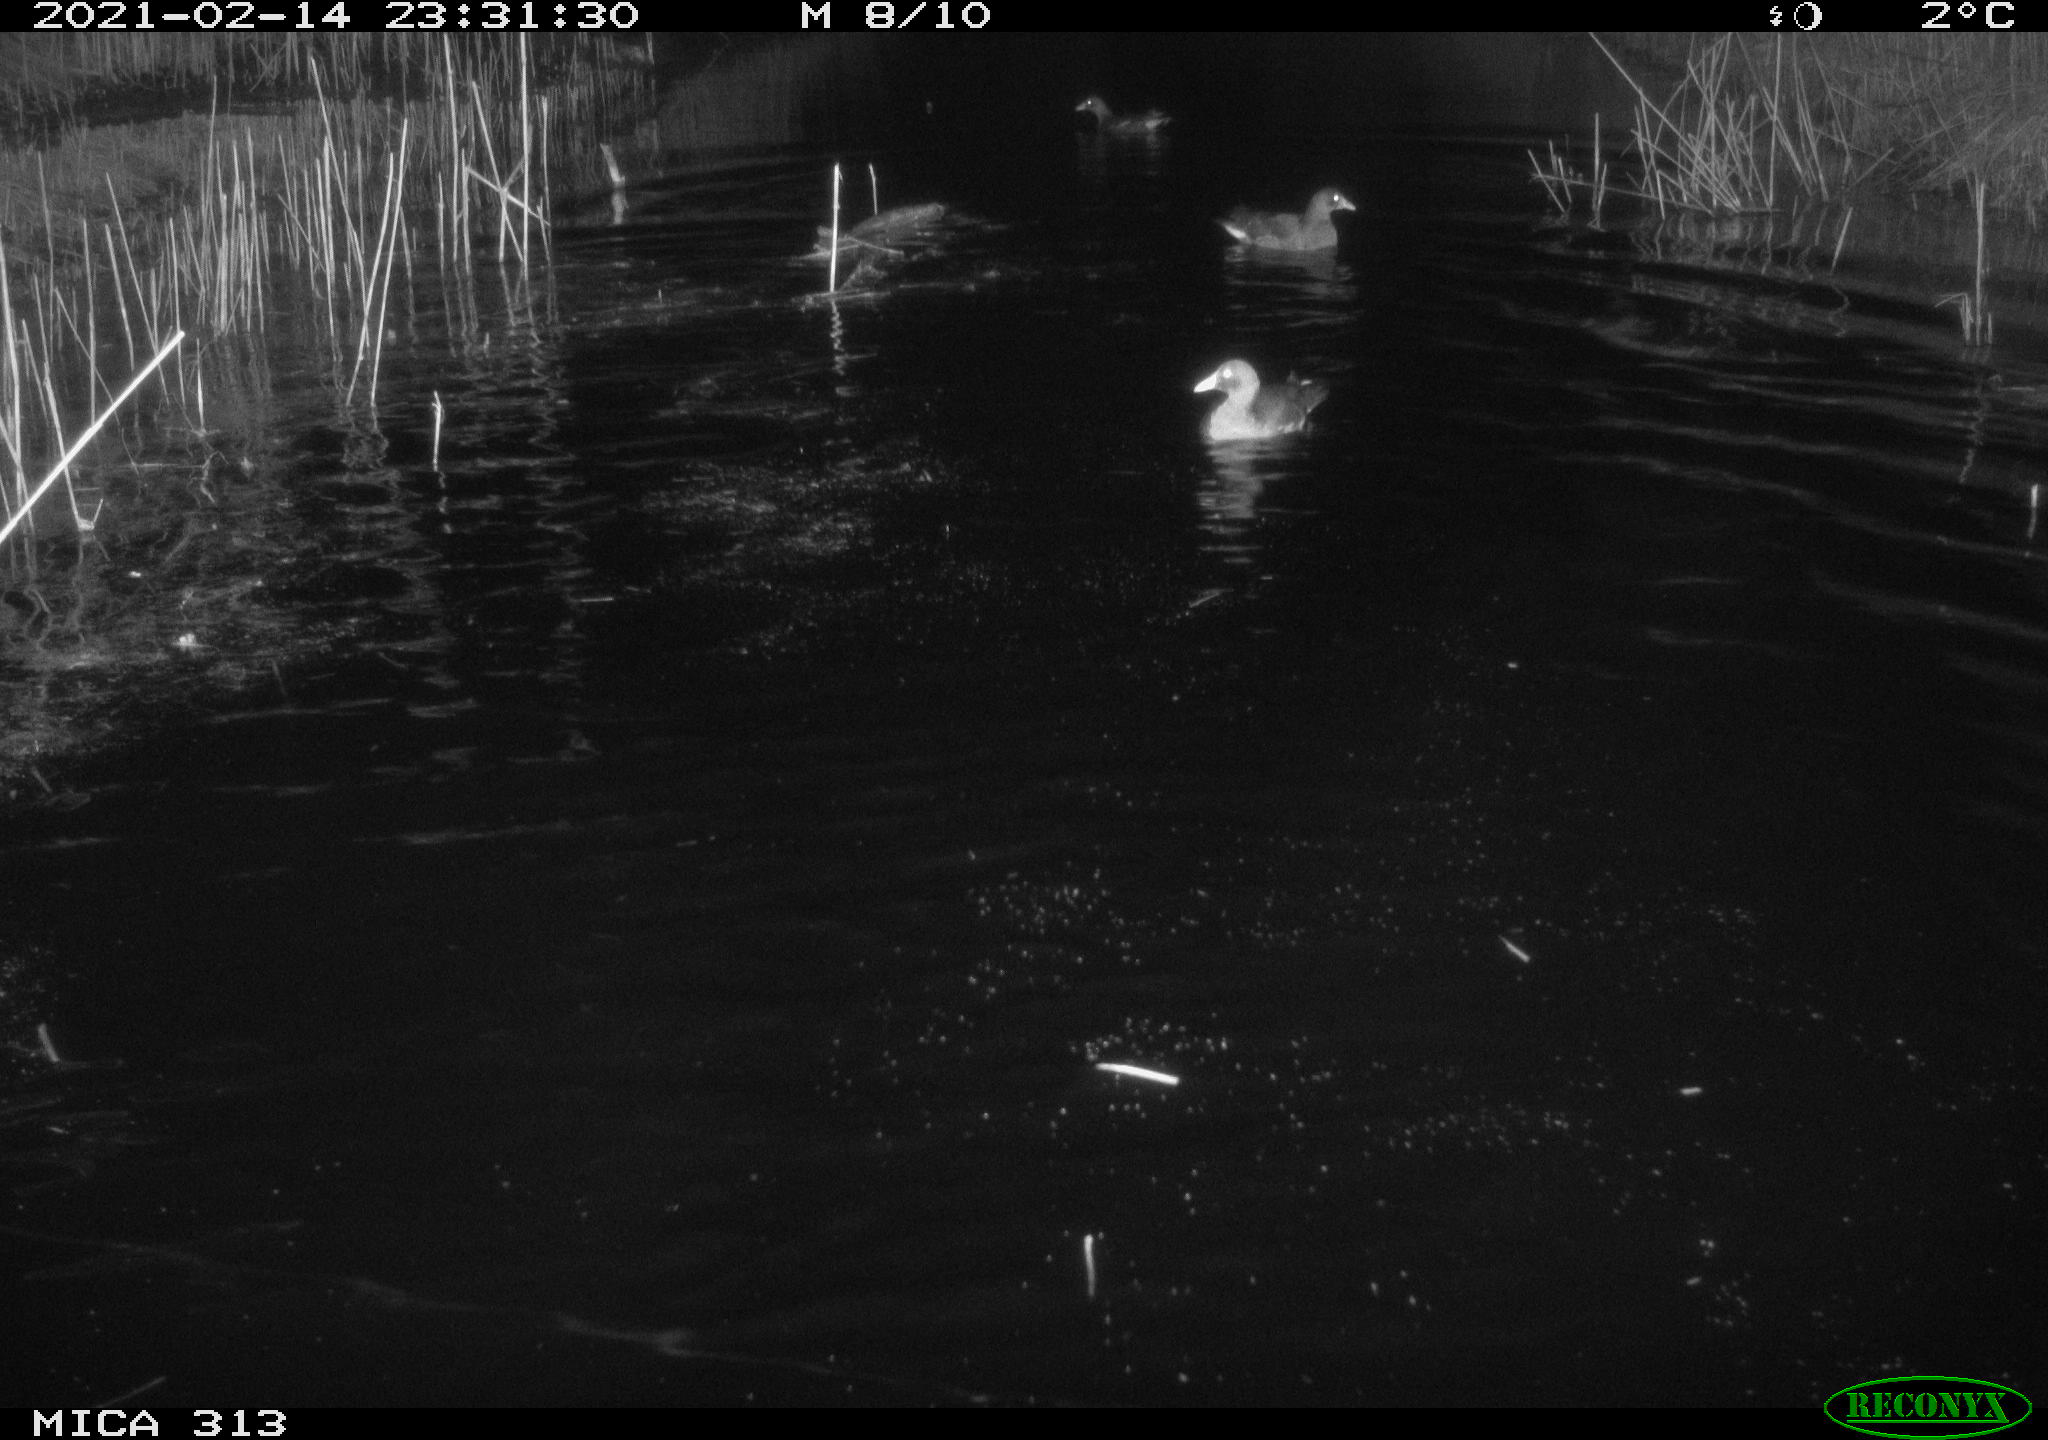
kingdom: Animalia
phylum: Chordata
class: Aves
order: Gruiformes
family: Rallidae
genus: Gallinula
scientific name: Gallinula chloropus
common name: Common moorhen
